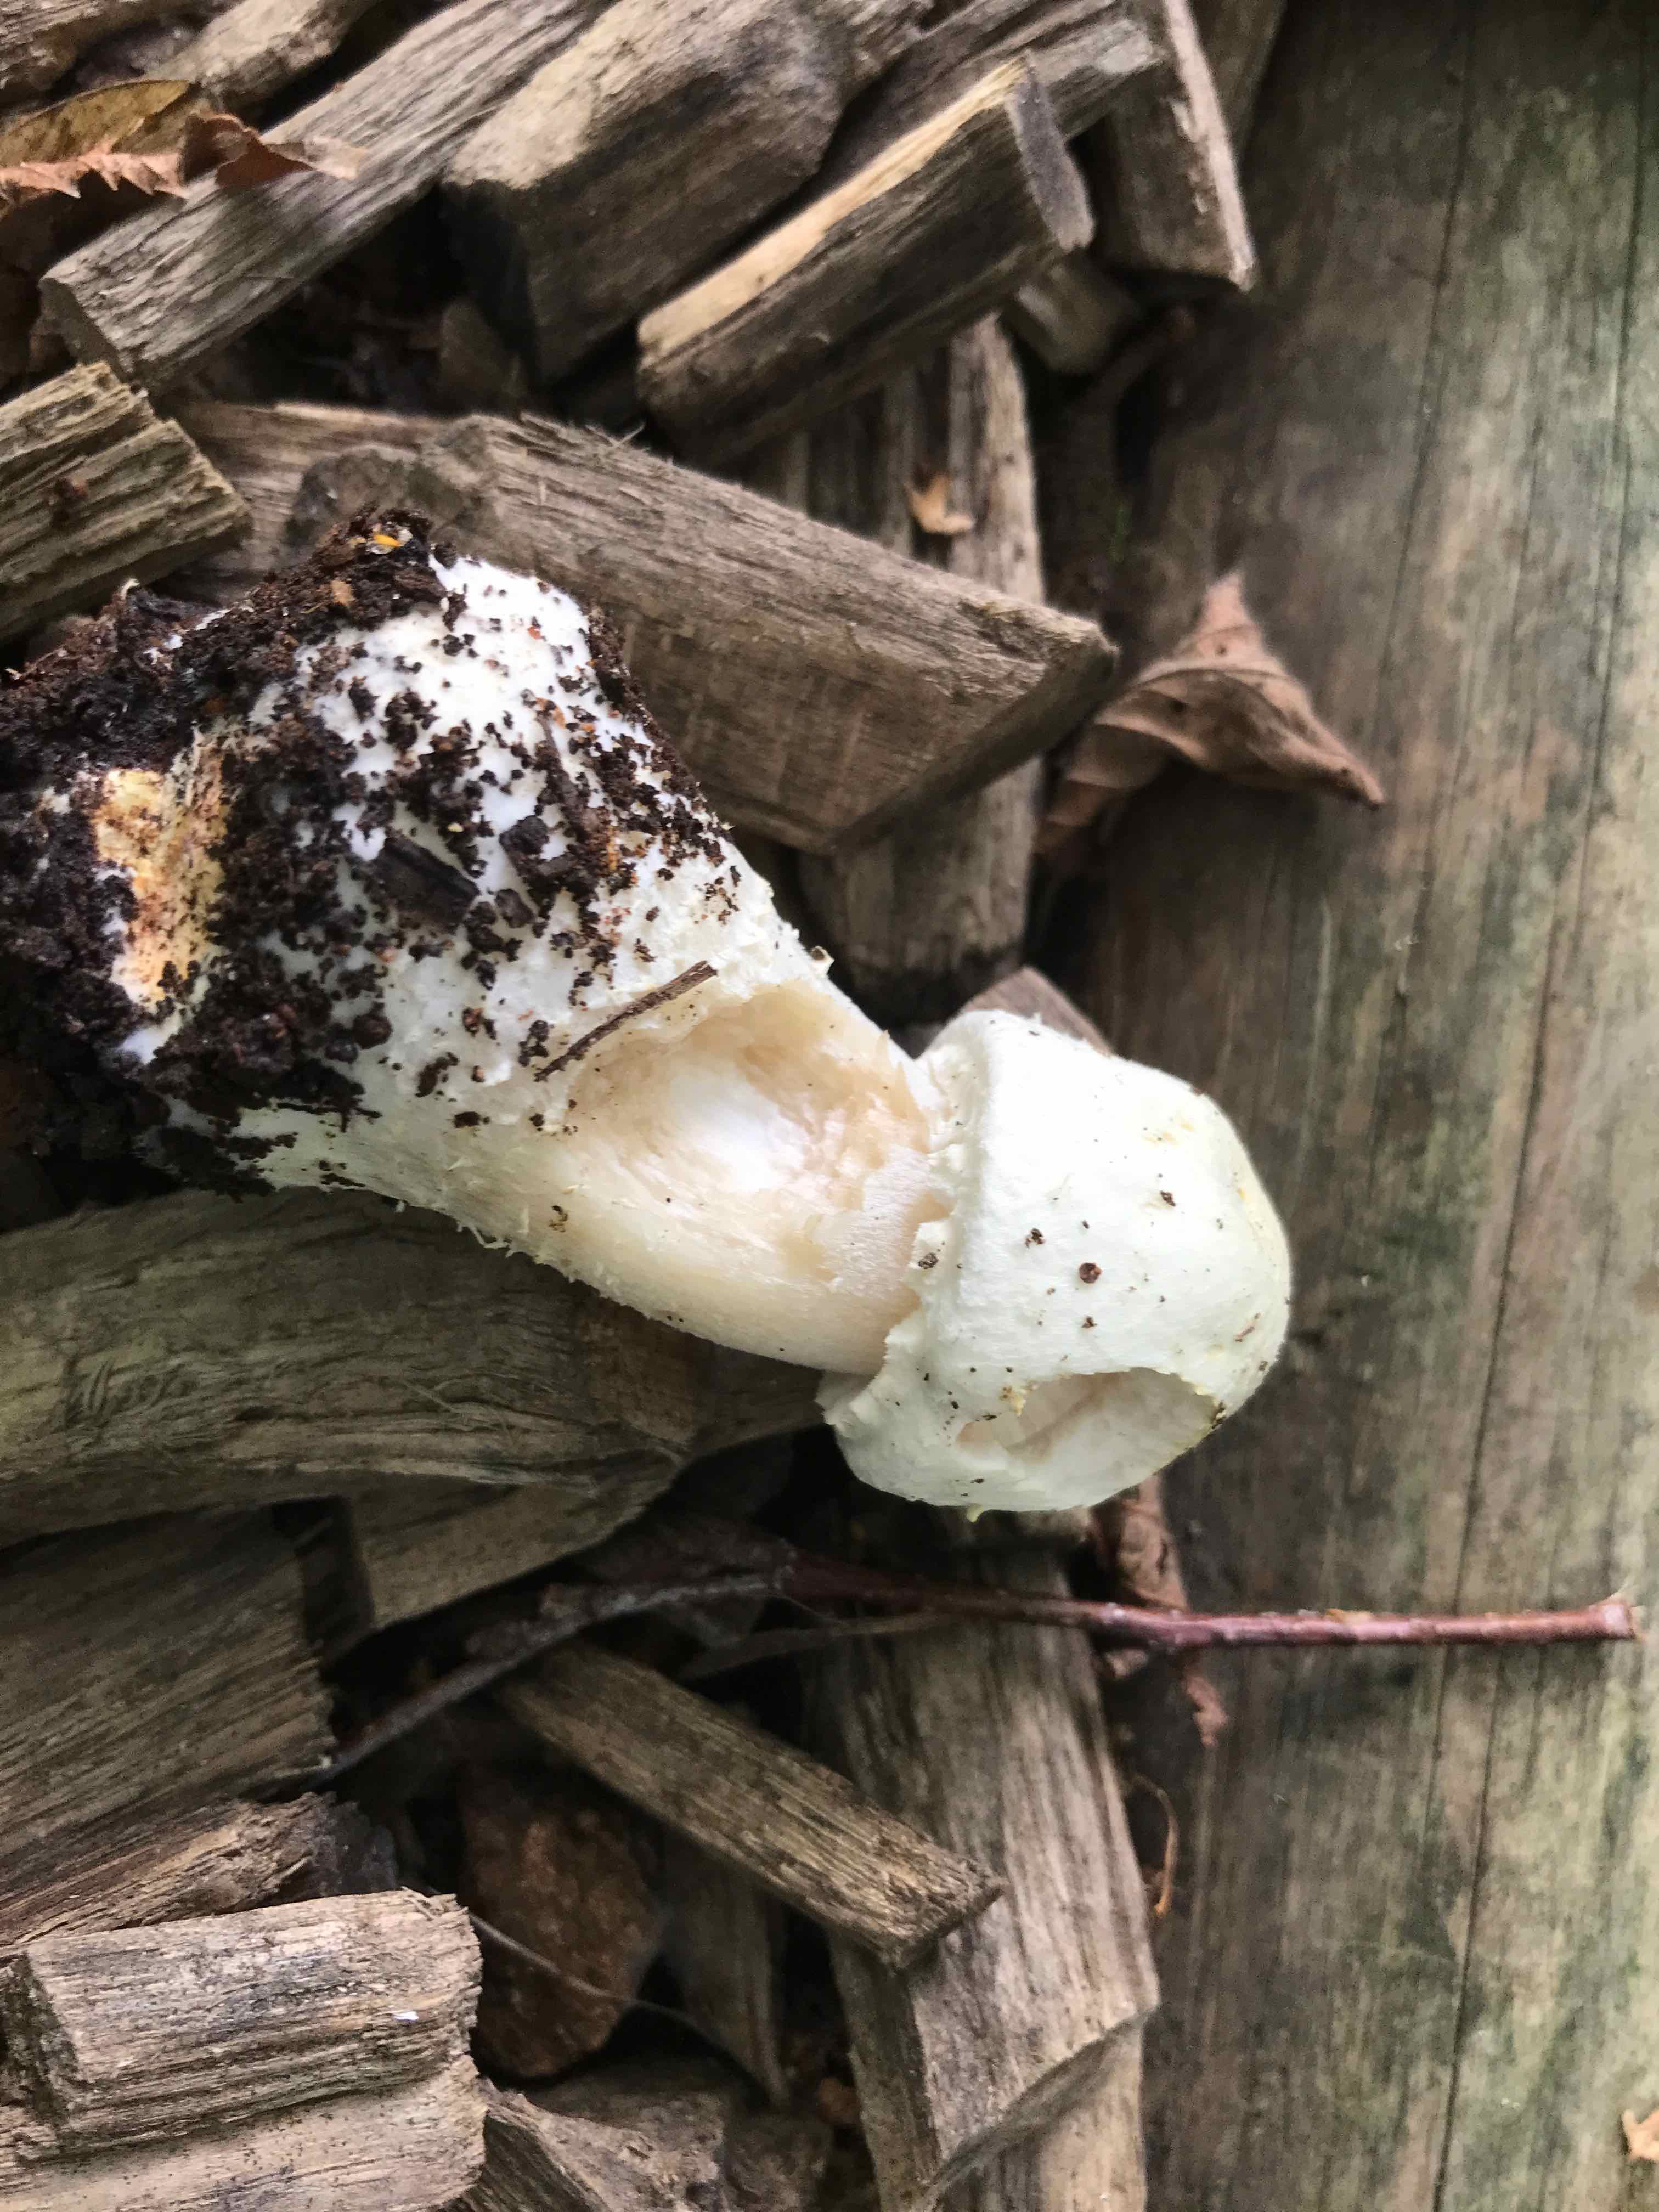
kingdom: Fungi
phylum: Basidiomycota
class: Agaricomycetes
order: Agaricales
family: Agaricaceae
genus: Agaricus
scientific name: Agaricus arvensis
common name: ager-champignon
